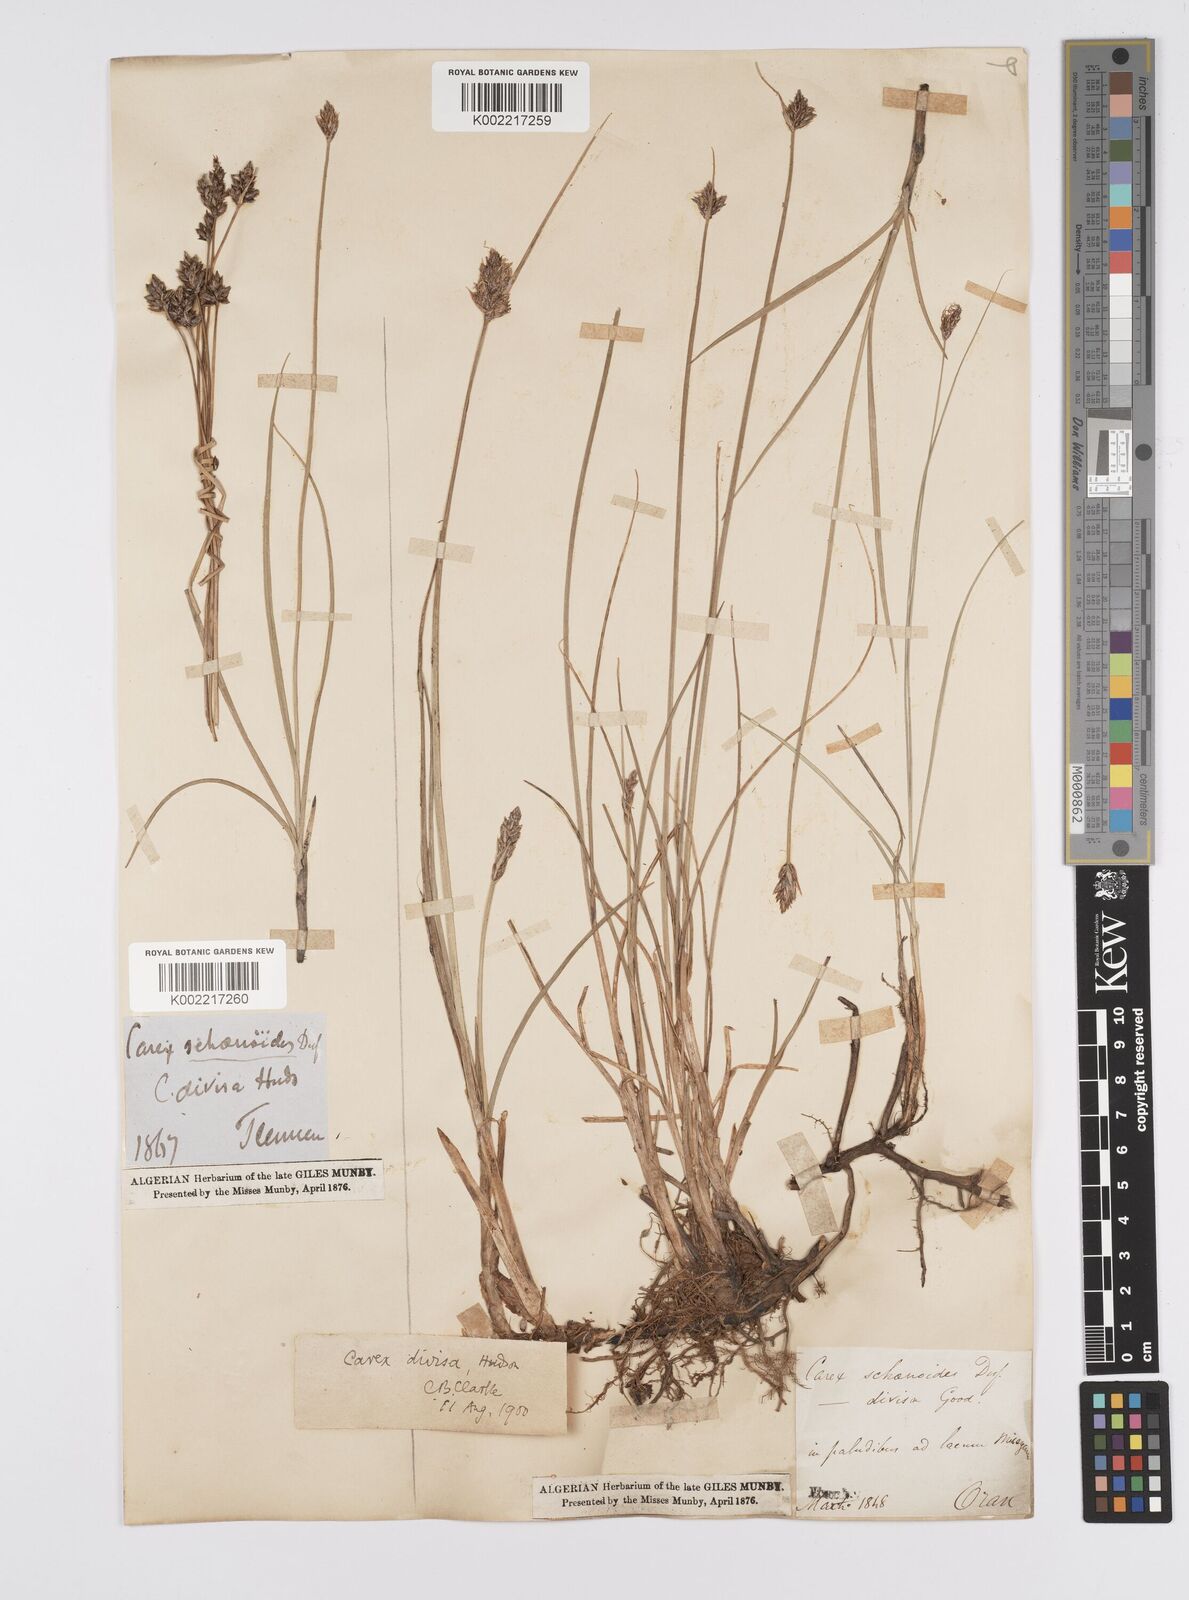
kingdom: Plantae
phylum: Tracheophyta
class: Liliopsida
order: Poales
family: Cyperaceae
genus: Carex
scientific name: Carex divisa
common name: Divided sedge
